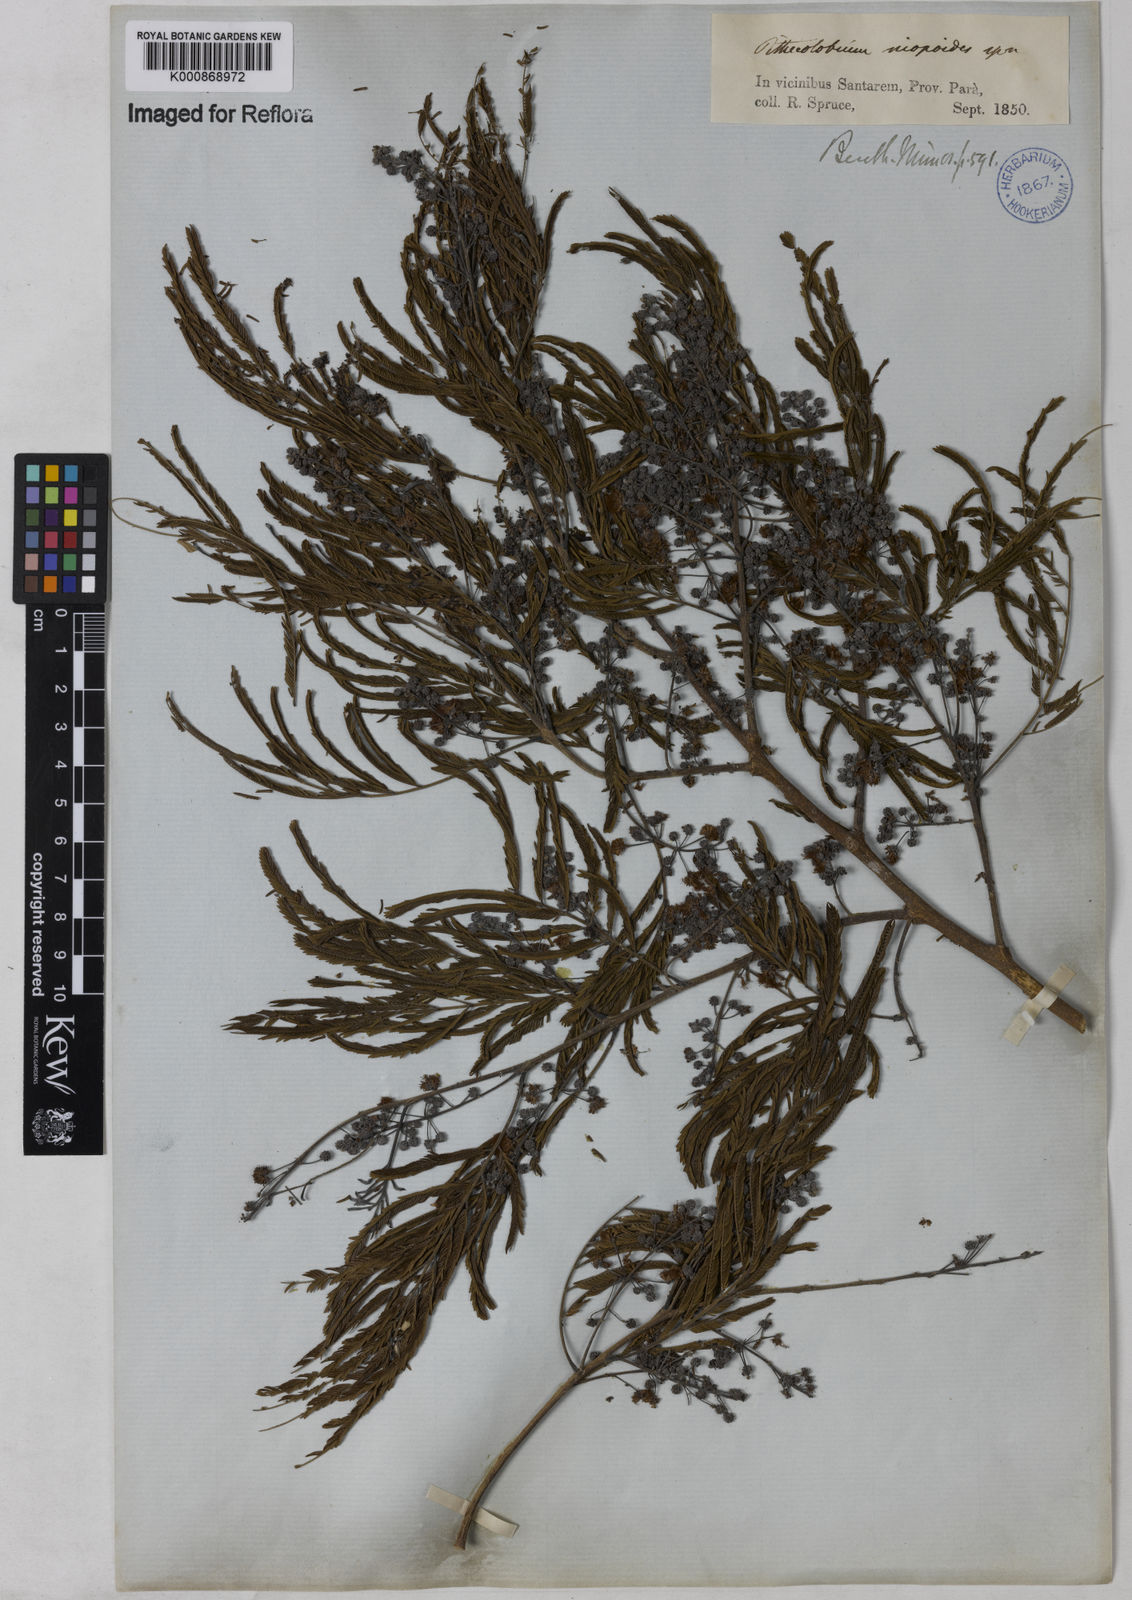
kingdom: Plantae
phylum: Tracheophyta
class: Magnoliopsida
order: Fabales
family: Fabaceae
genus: Albizia
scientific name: Albizia niopoides
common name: Silk tree
